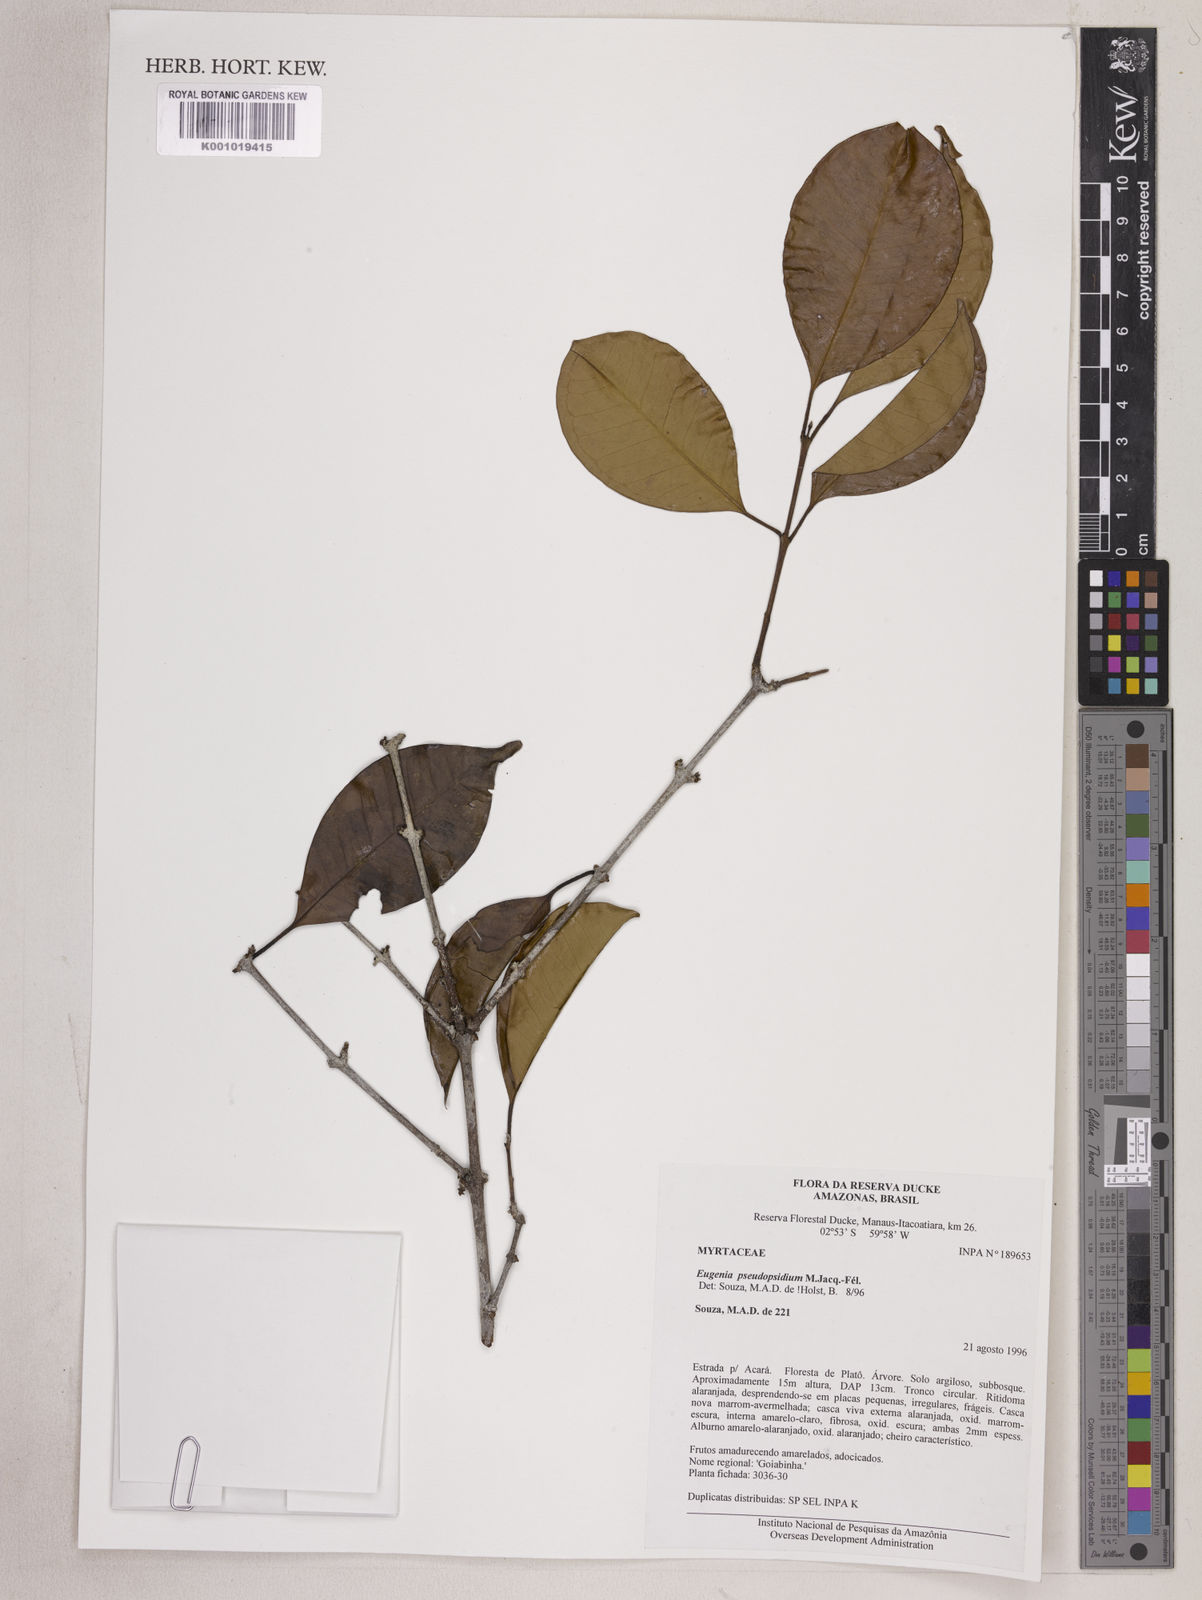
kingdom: Plantae
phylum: Tracheophyta
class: Magnoliopsida
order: Myrtales
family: Myrtaceae
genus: Eugenia
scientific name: Eugenia pseudopsidium
